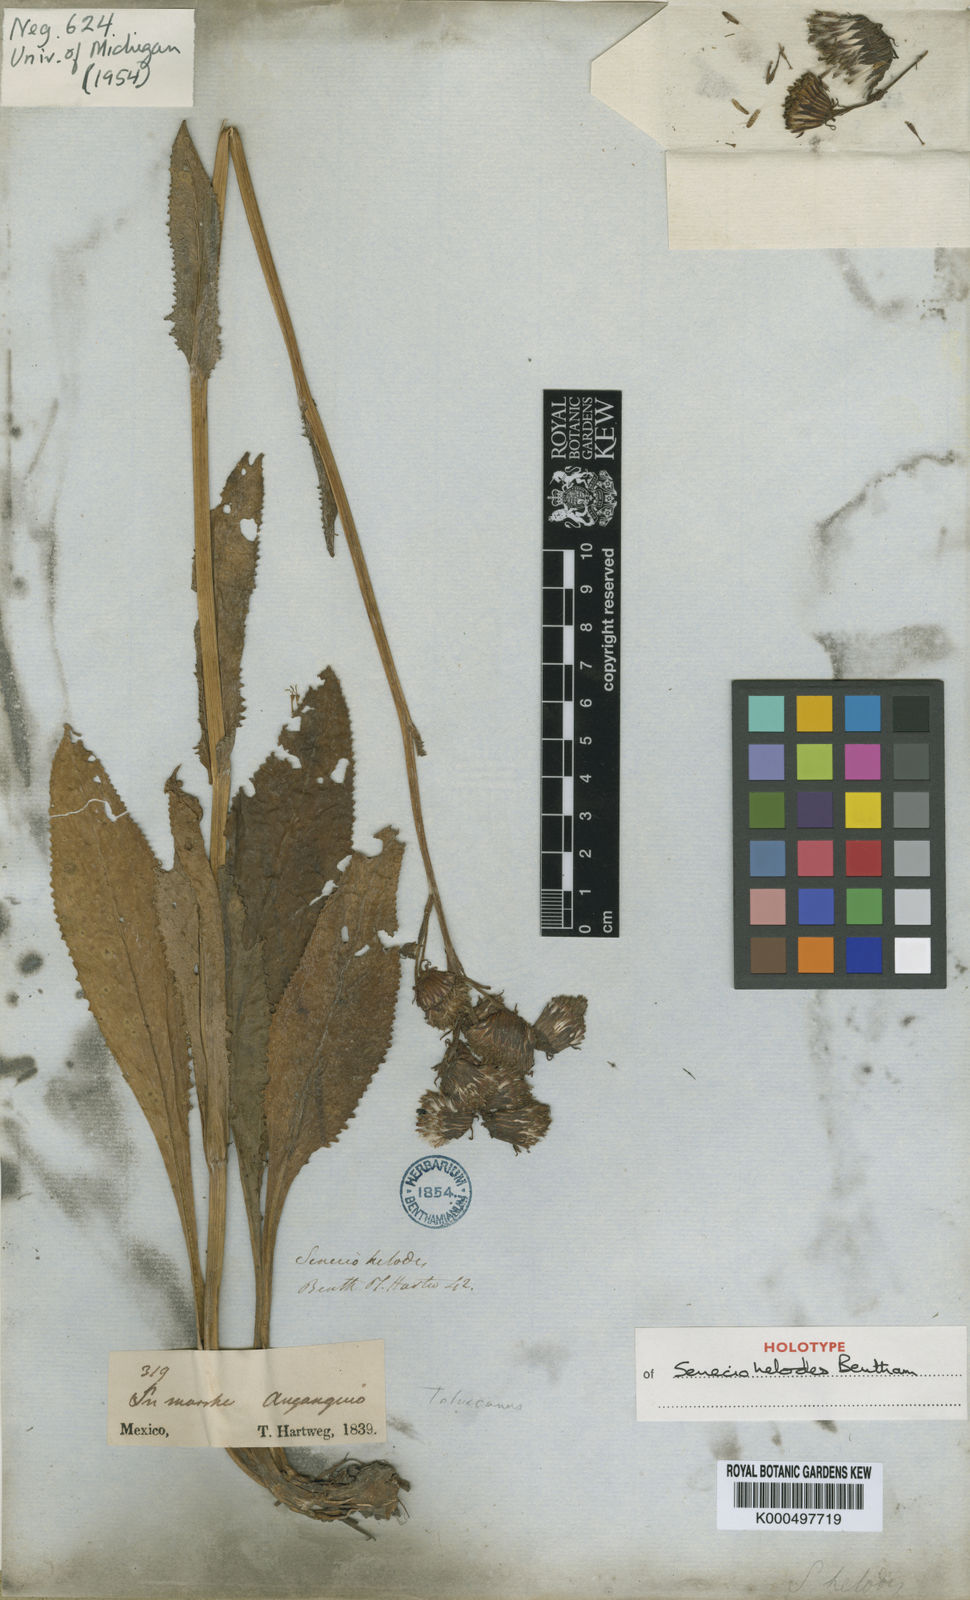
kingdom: Plantae
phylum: Tracheophyta
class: Magnoliopsida
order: Asterales
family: Asteraceae
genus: Packera
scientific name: Packera toluccana
